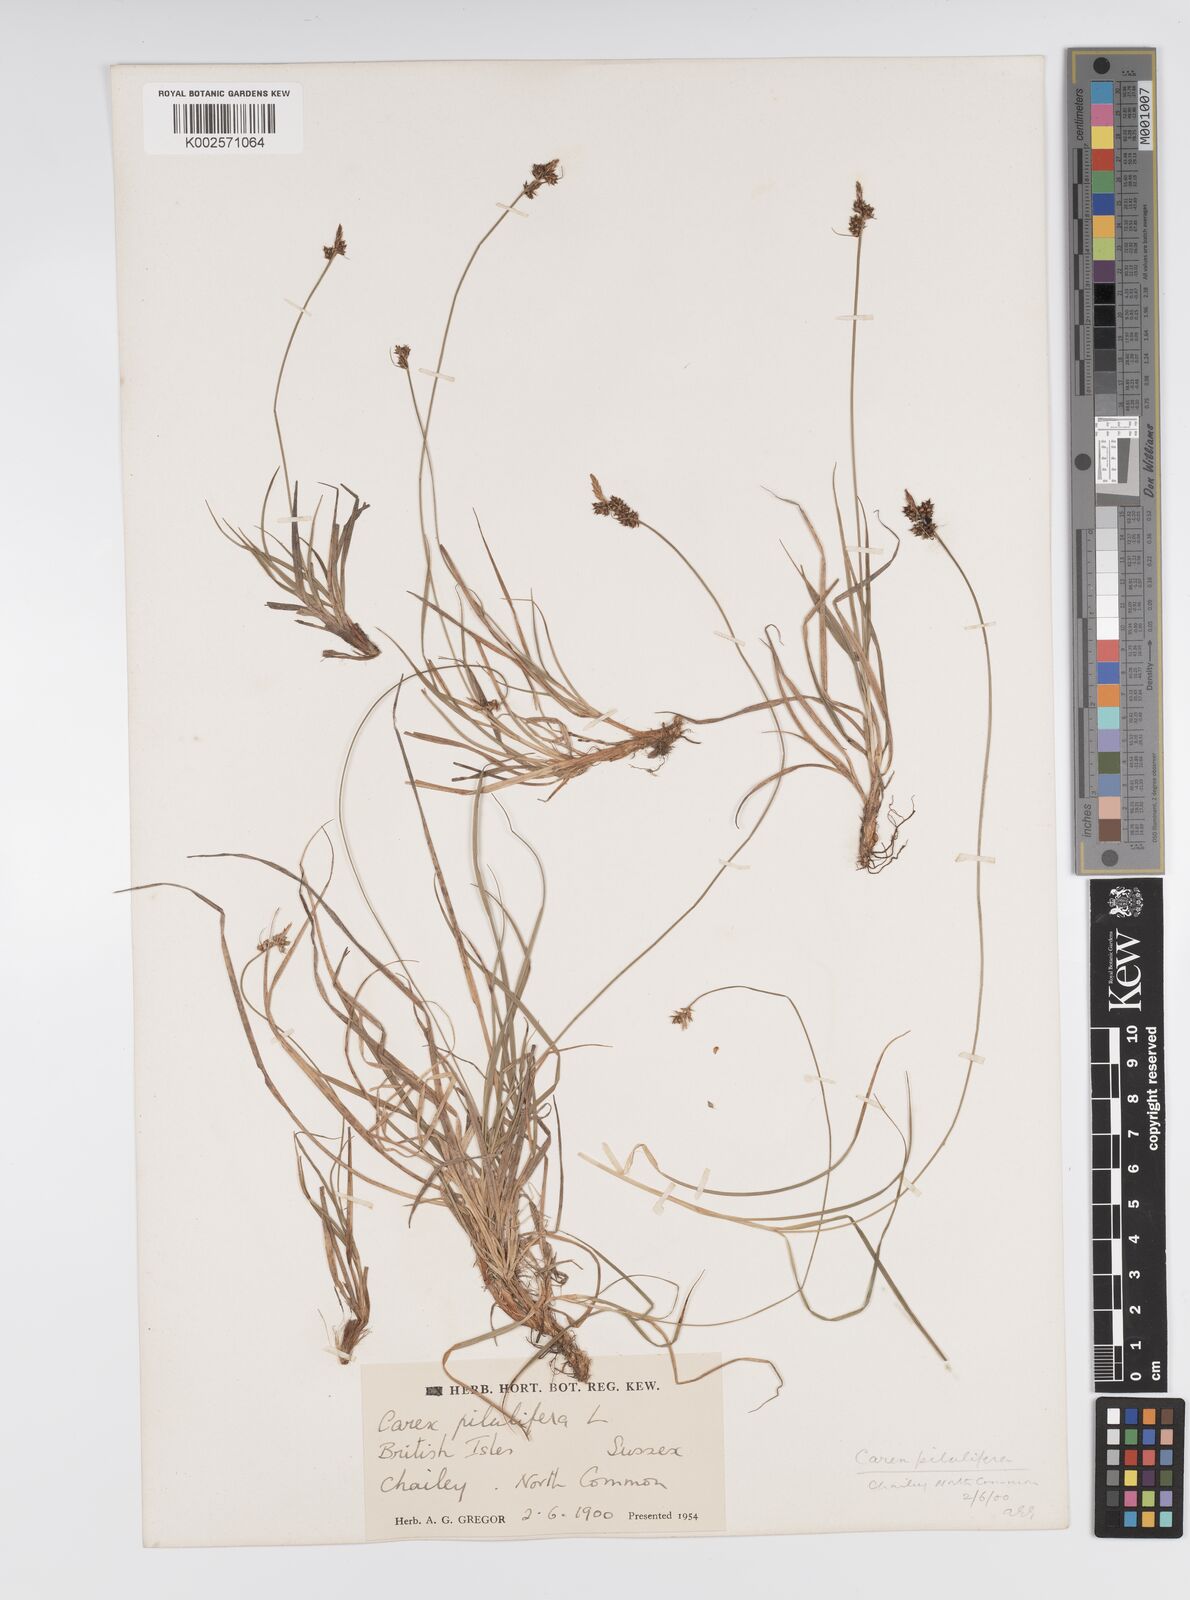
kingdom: Plantae
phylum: Tracheophyta
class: Liliopsida
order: Poales
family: Cyperaceae
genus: Carex
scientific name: Carex pilulifera
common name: Pill sedge
